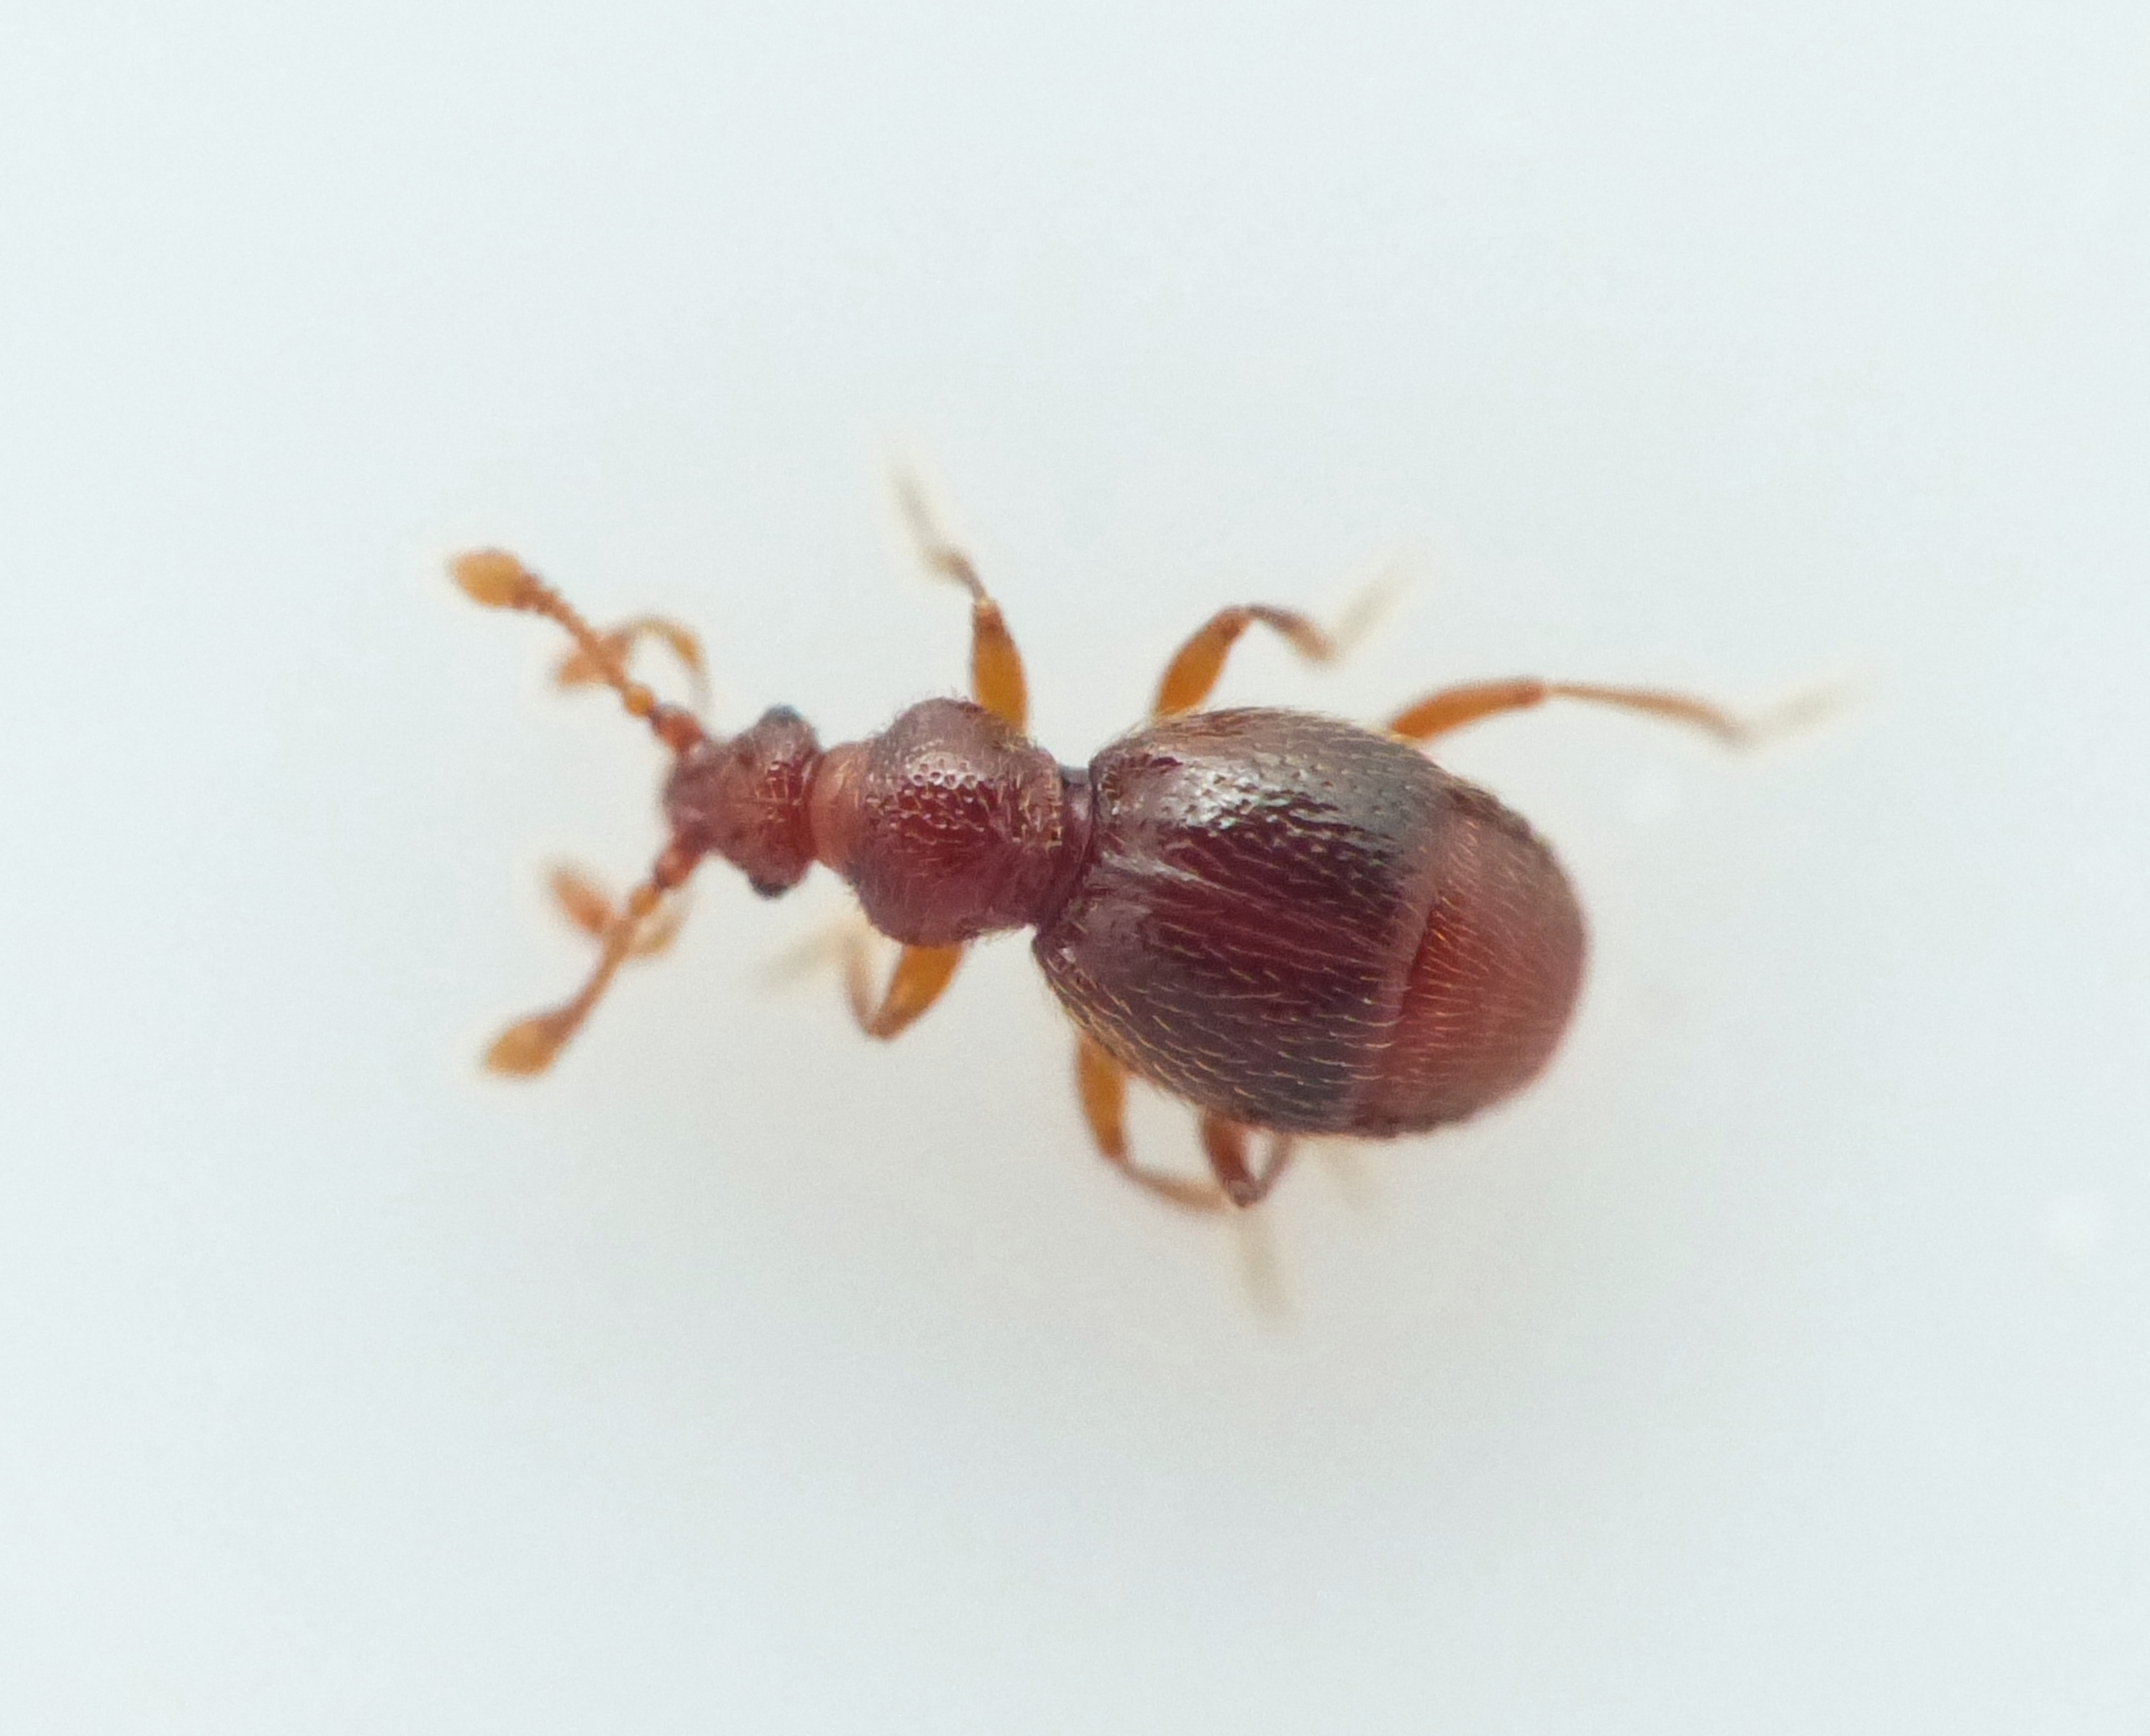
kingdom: Animalia
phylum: Arthropoda
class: Insecta
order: Coleoptera
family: Staphylinidae
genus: Bryaxis
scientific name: Bryaxis puncticollis
